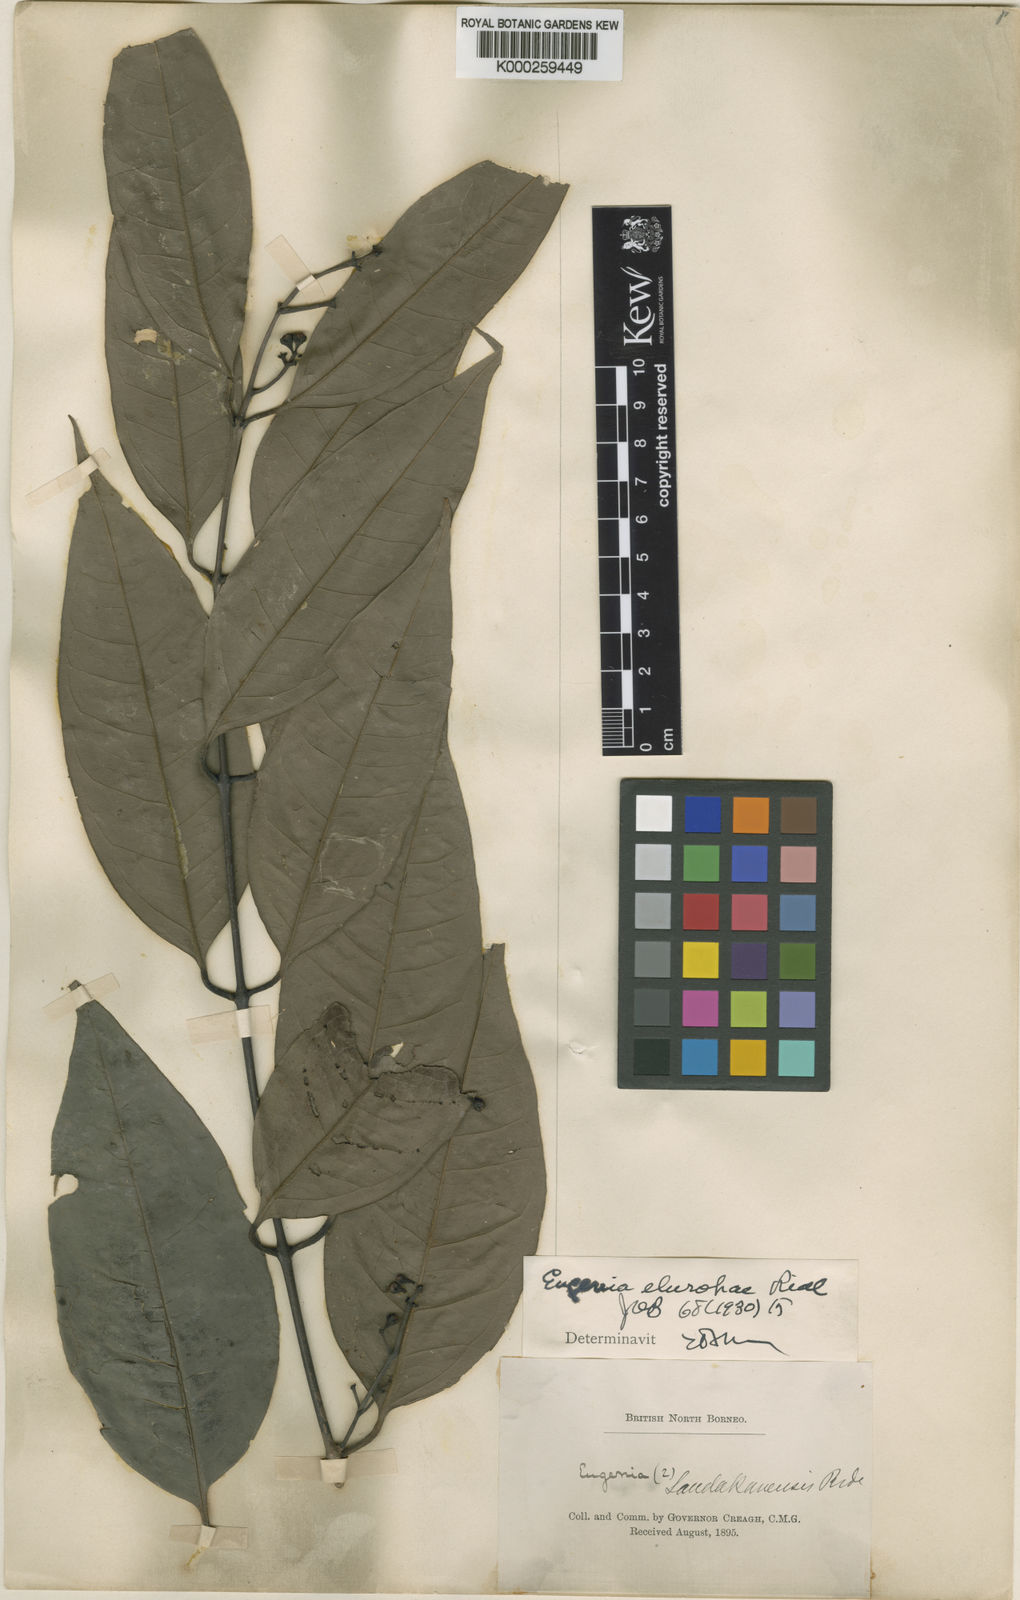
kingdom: Plantae
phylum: Tracheophyta
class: Magnoliopsida
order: Myrtales
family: Myrtaceae
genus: Syzygium
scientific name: Syzygium elopurae
